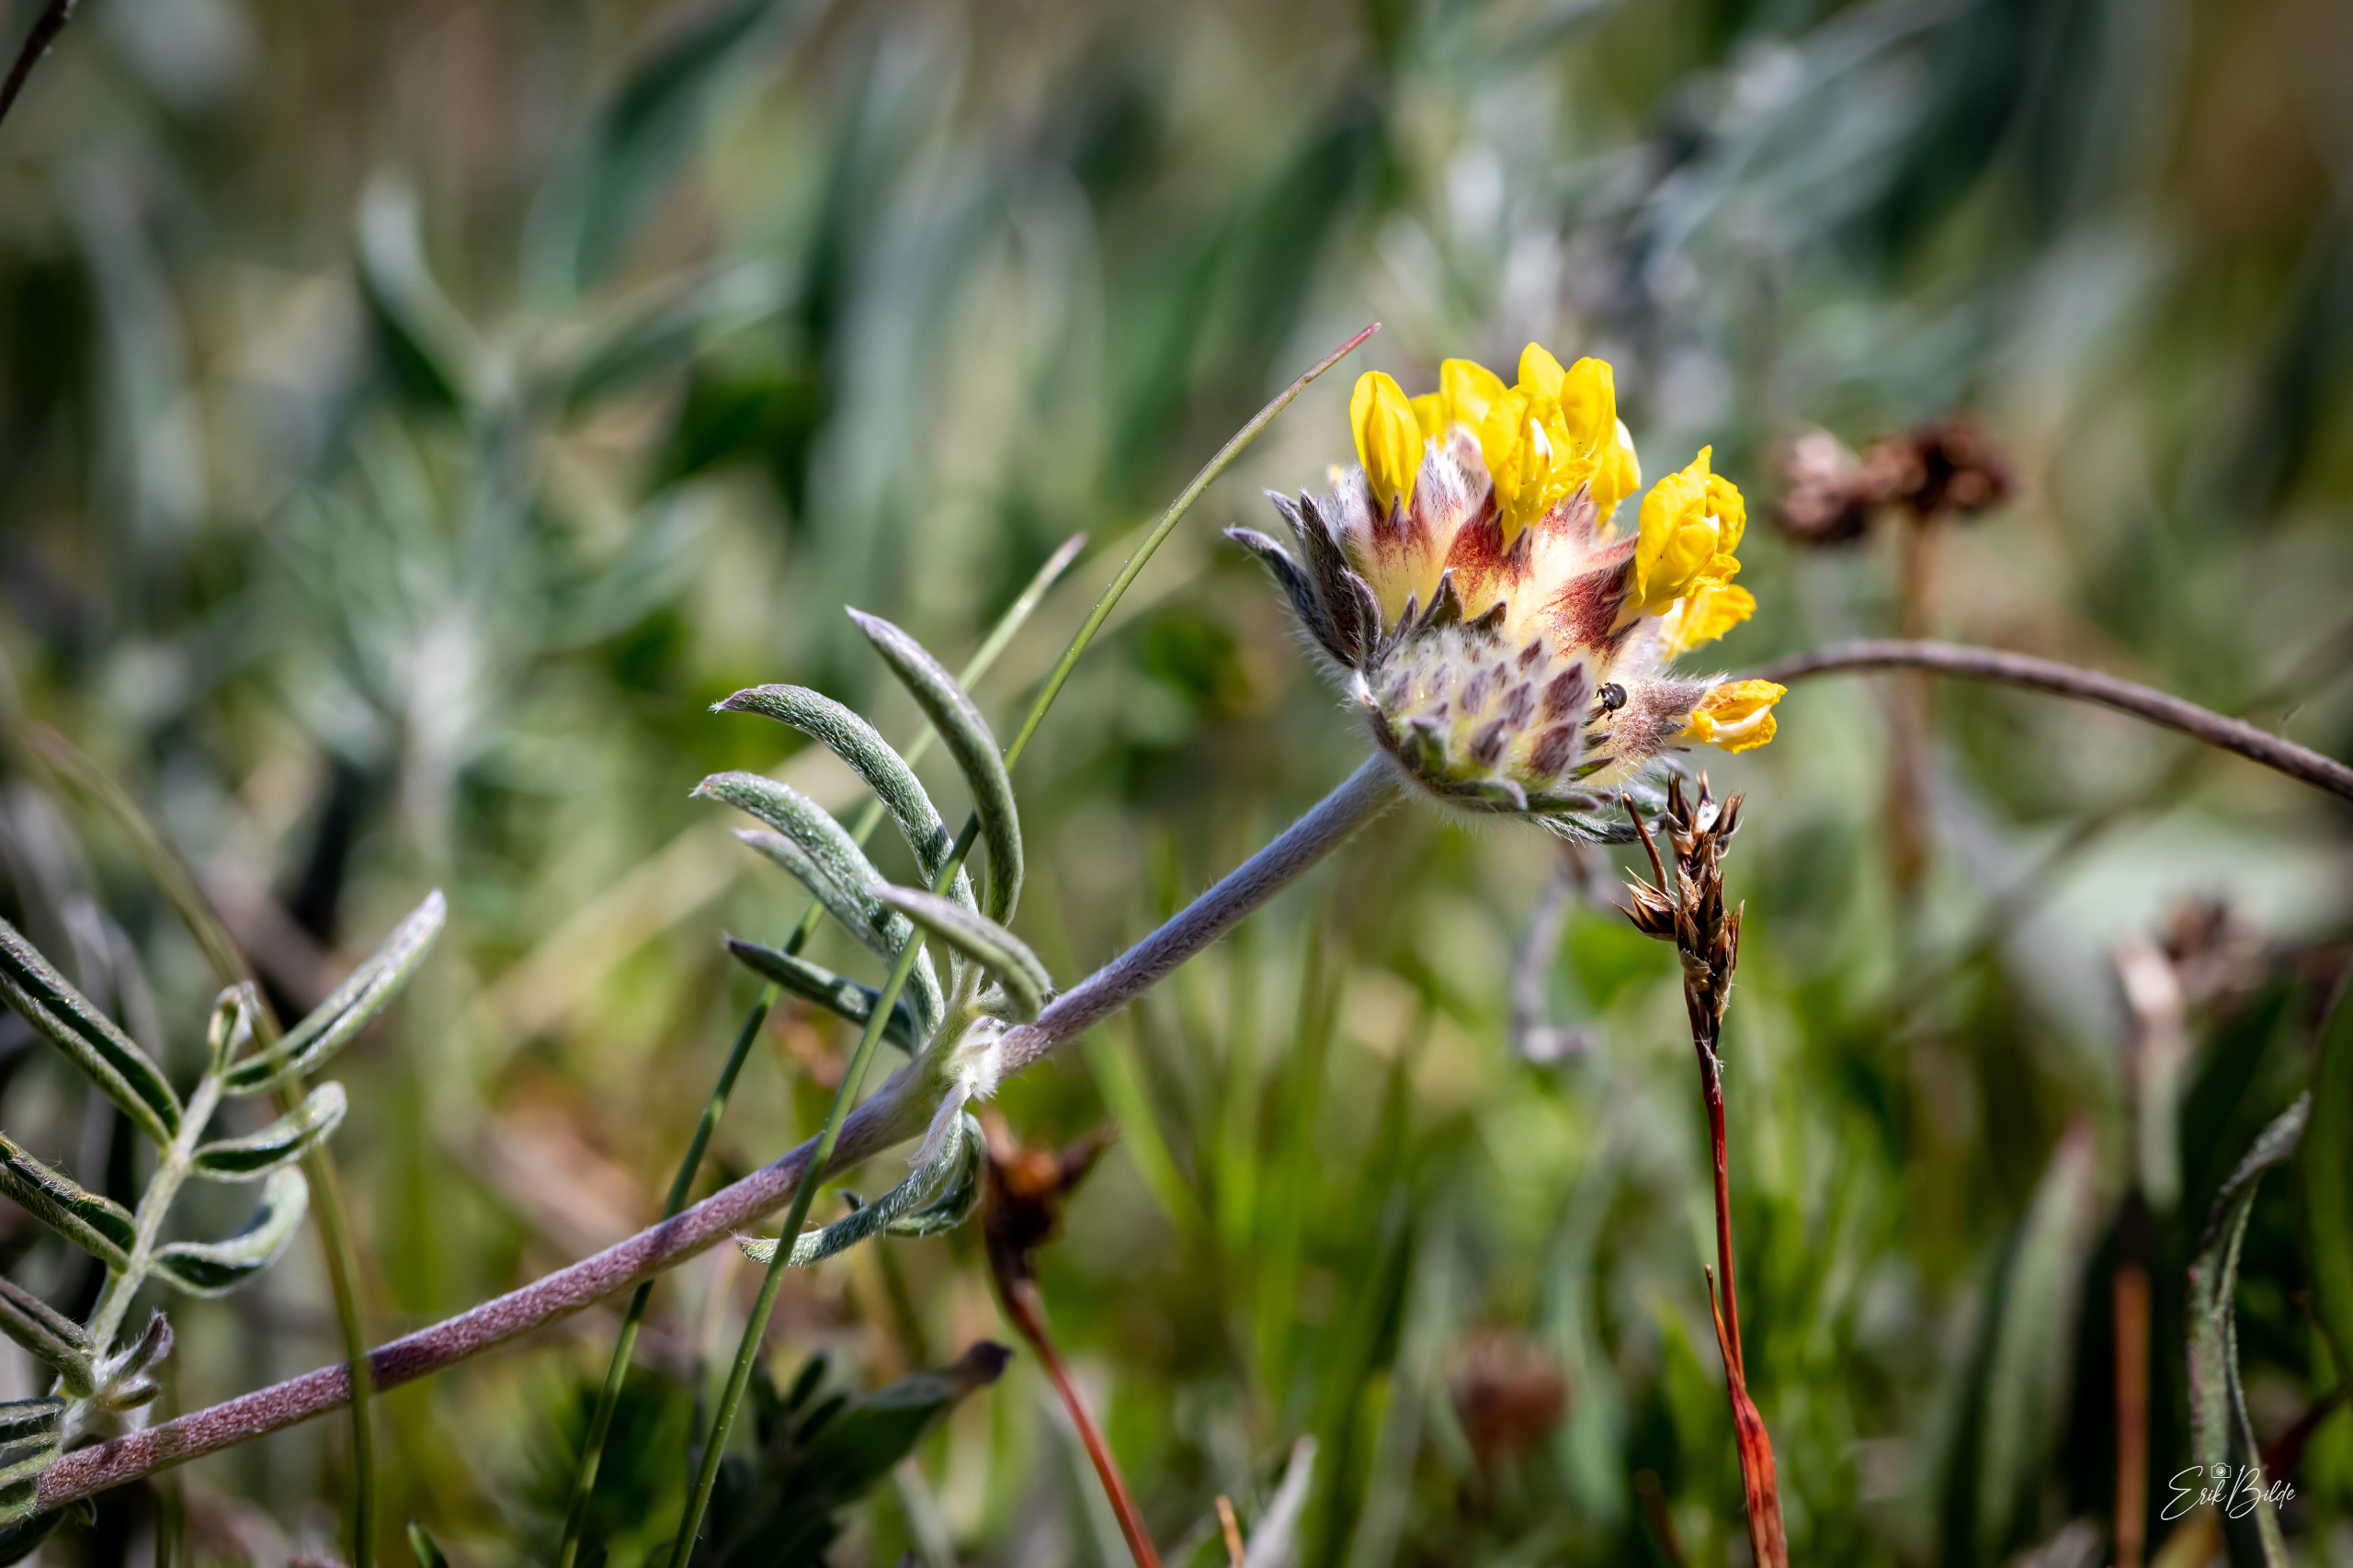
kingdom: Plantae
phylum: Tracheophyta
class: Magnoliopsida
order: Fabales
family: Fabaceae
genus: Anthyllis
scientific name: Anthyllis vulneraria
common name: Rundbælg
